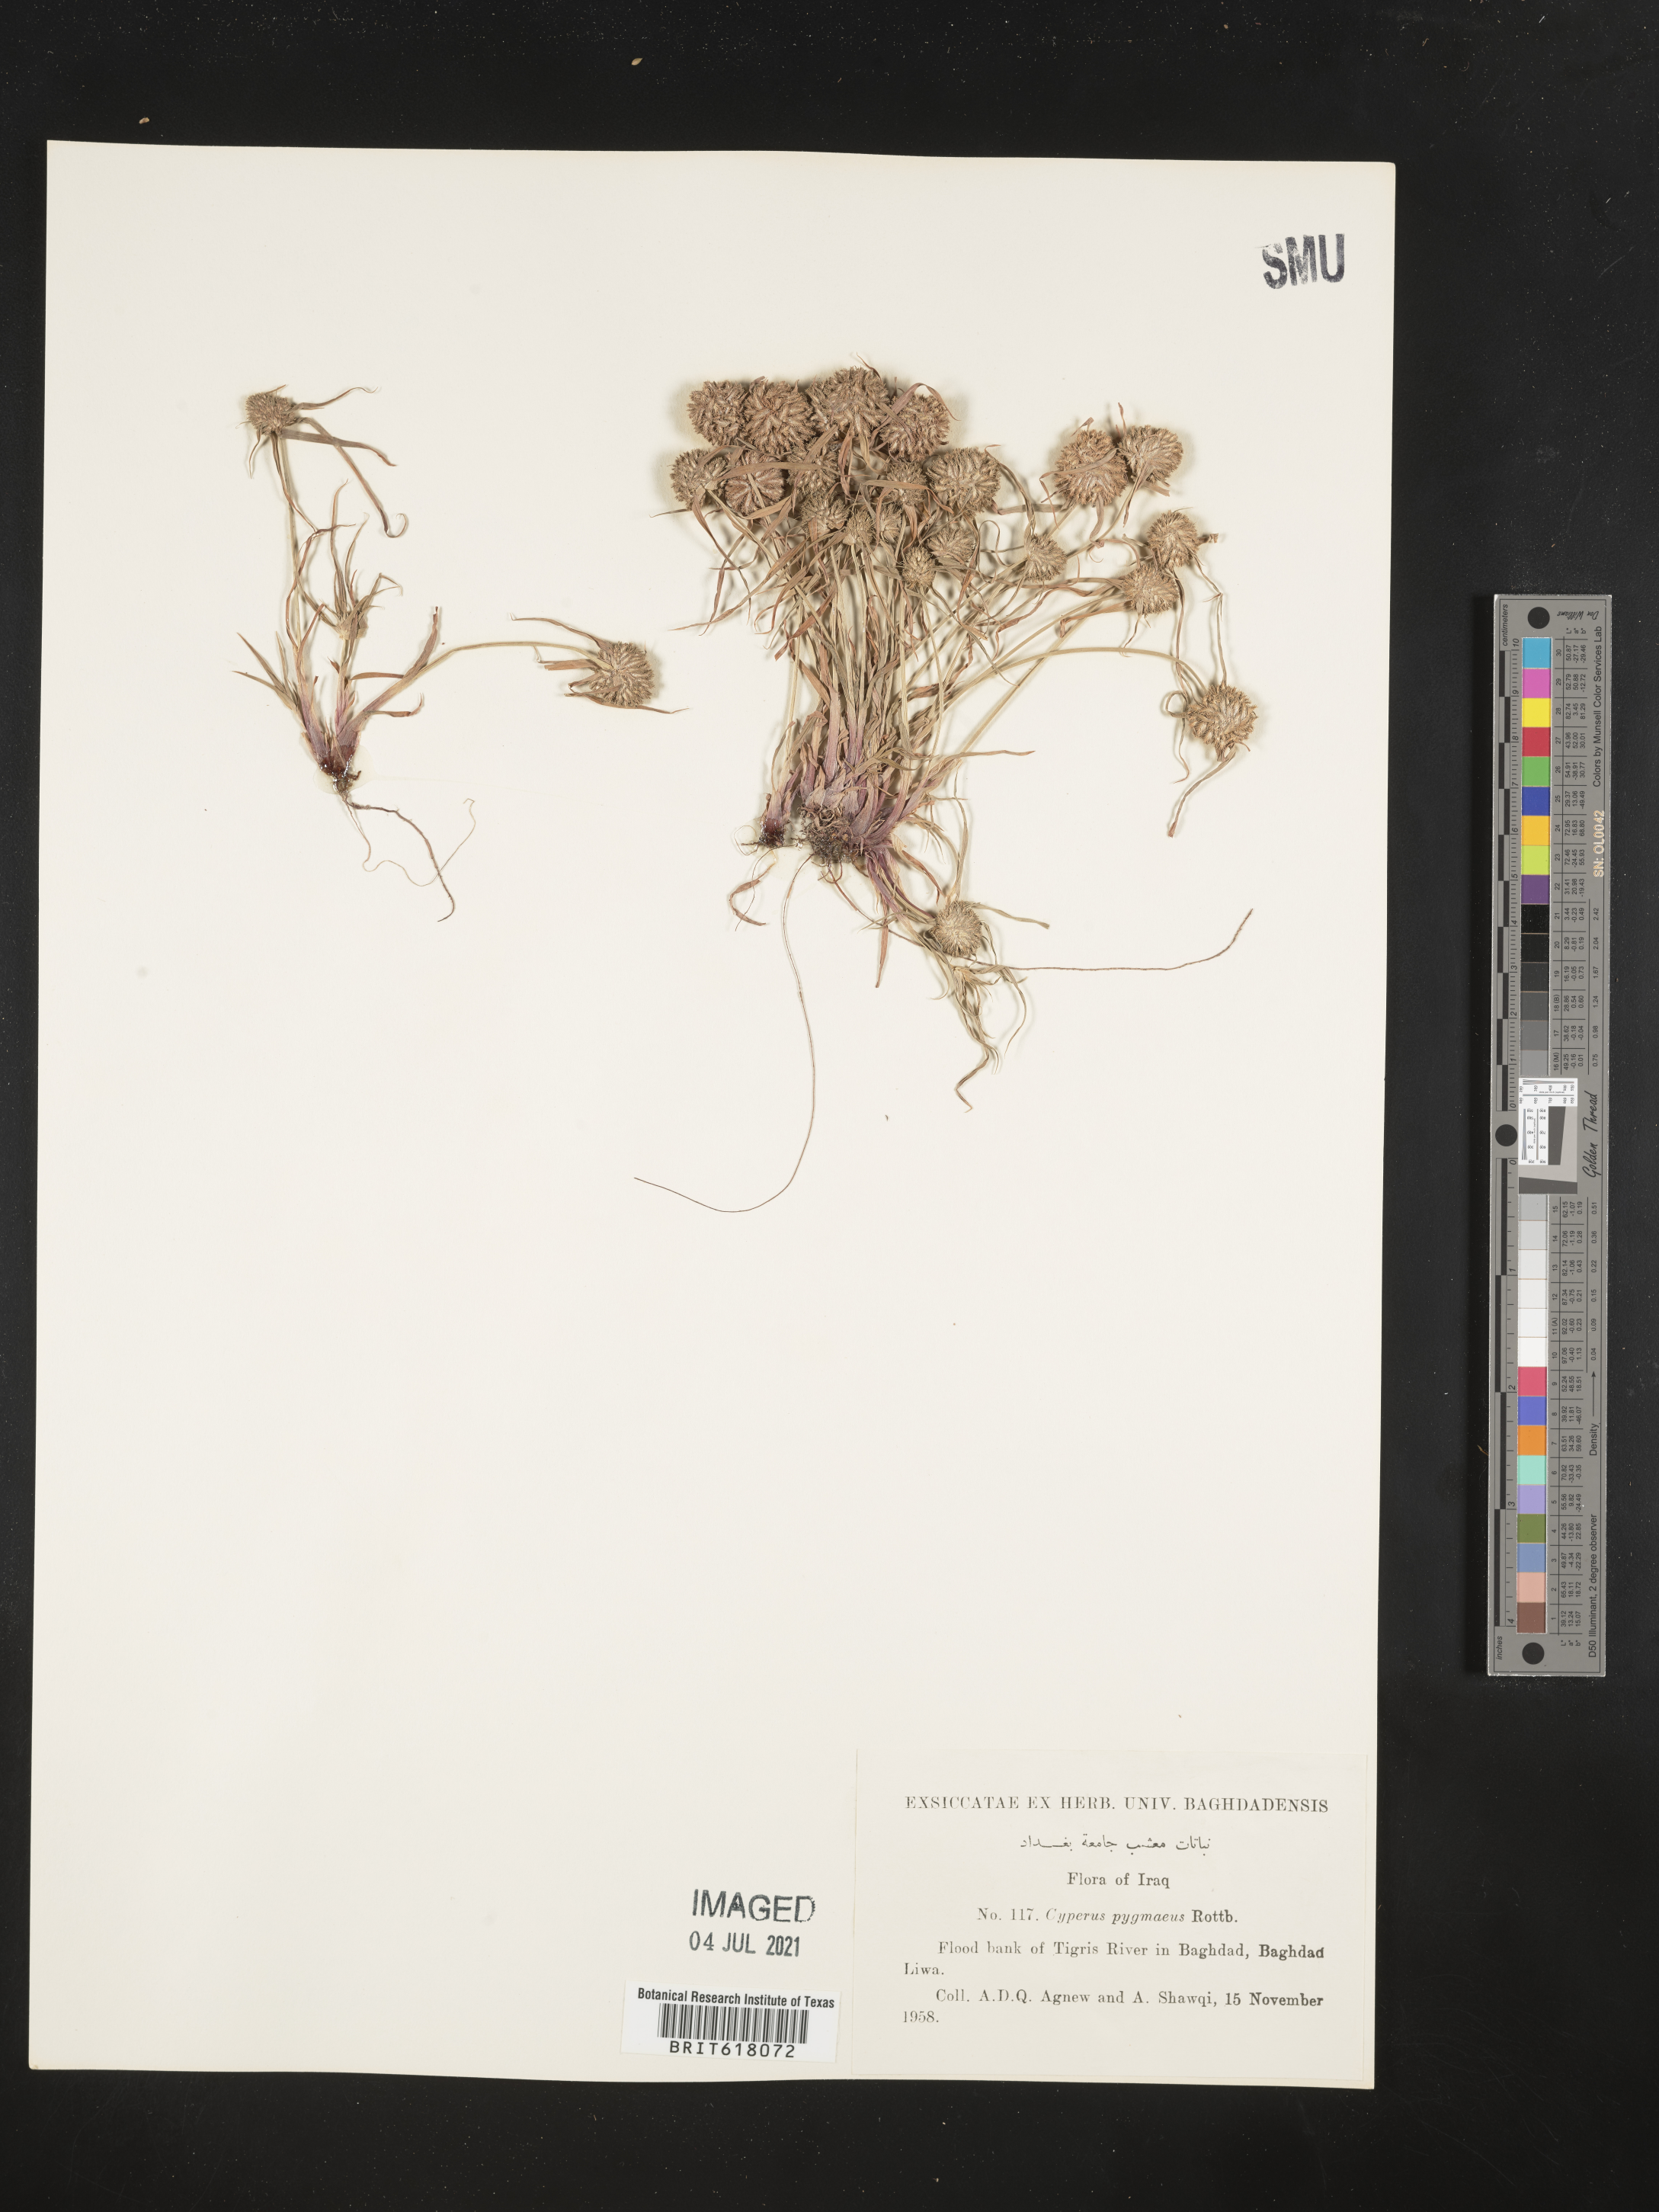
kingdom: Plantae
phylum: Tracheophyta
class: Liliopsida
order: Poales
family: Cyperaceae
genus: Cyperus
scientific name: Cyperus michelianus
